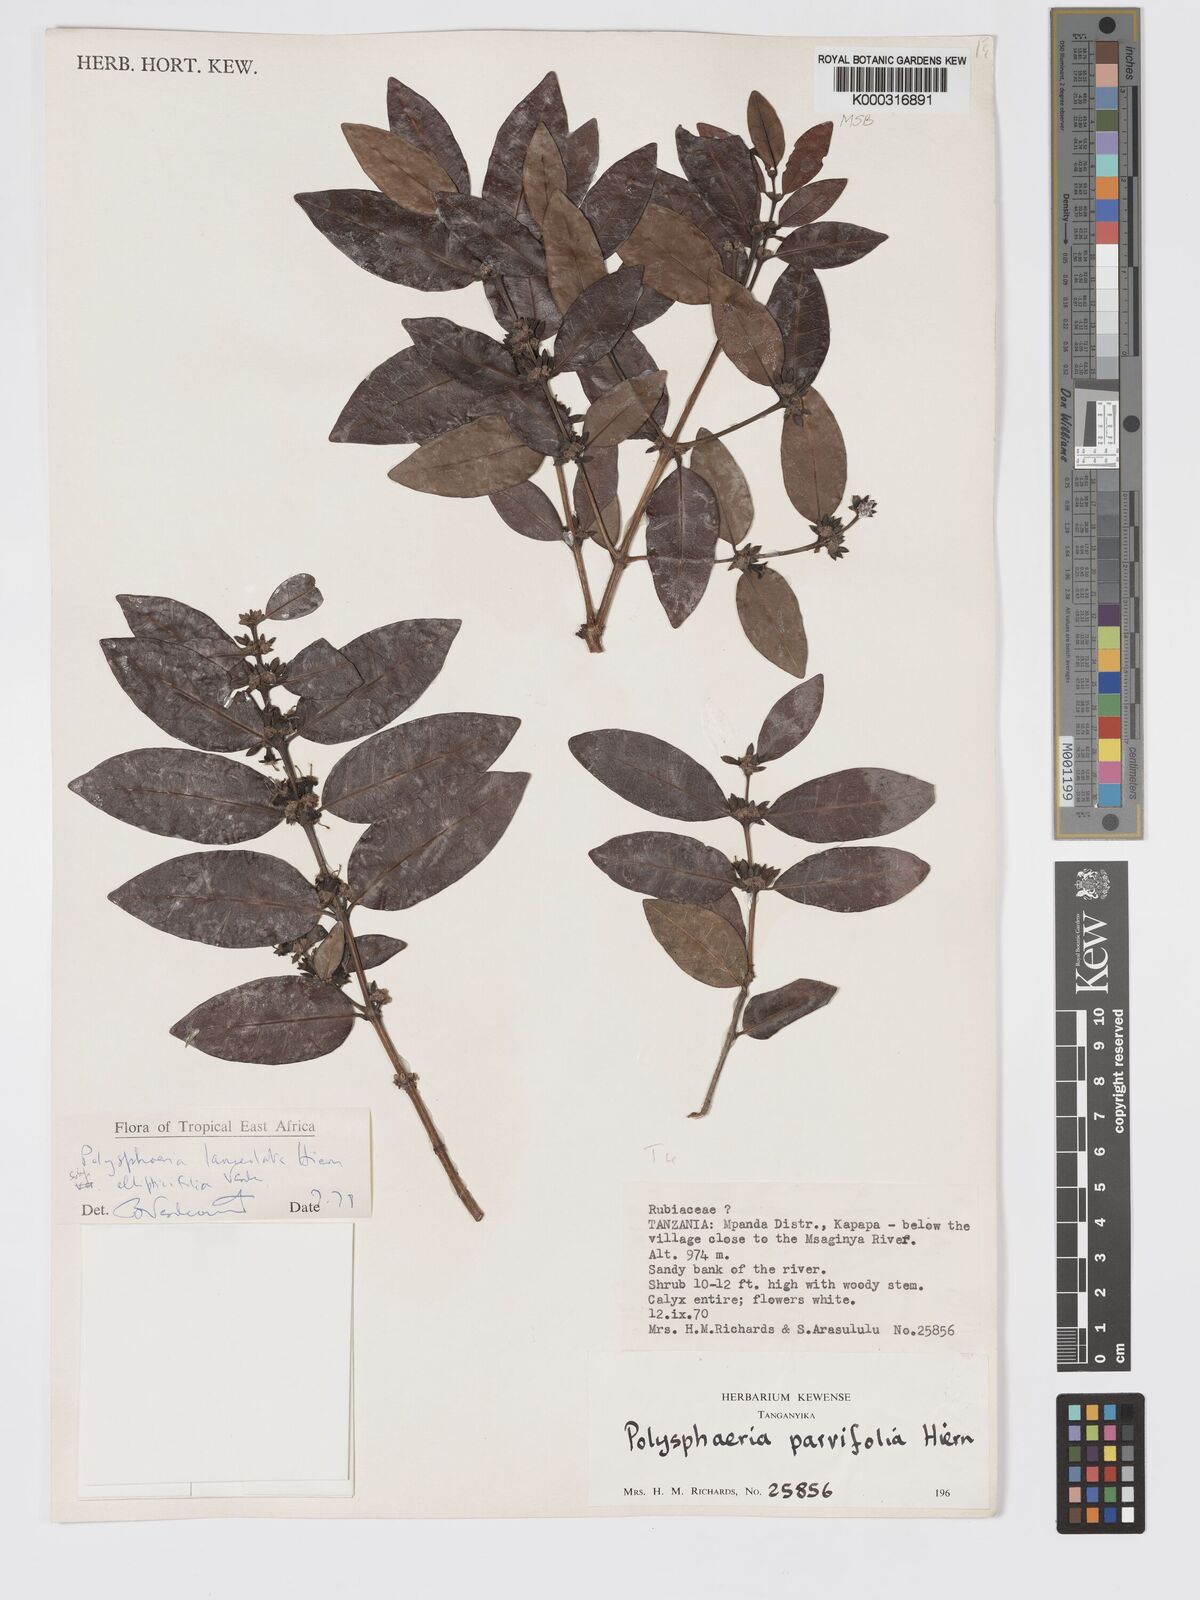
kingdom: Plantae
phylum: Tracheophyta
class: Magnoliopsida
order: Gentianales
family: Rubiaceae
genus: Polysphaeria
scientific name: Polysphaeria lanceolata
